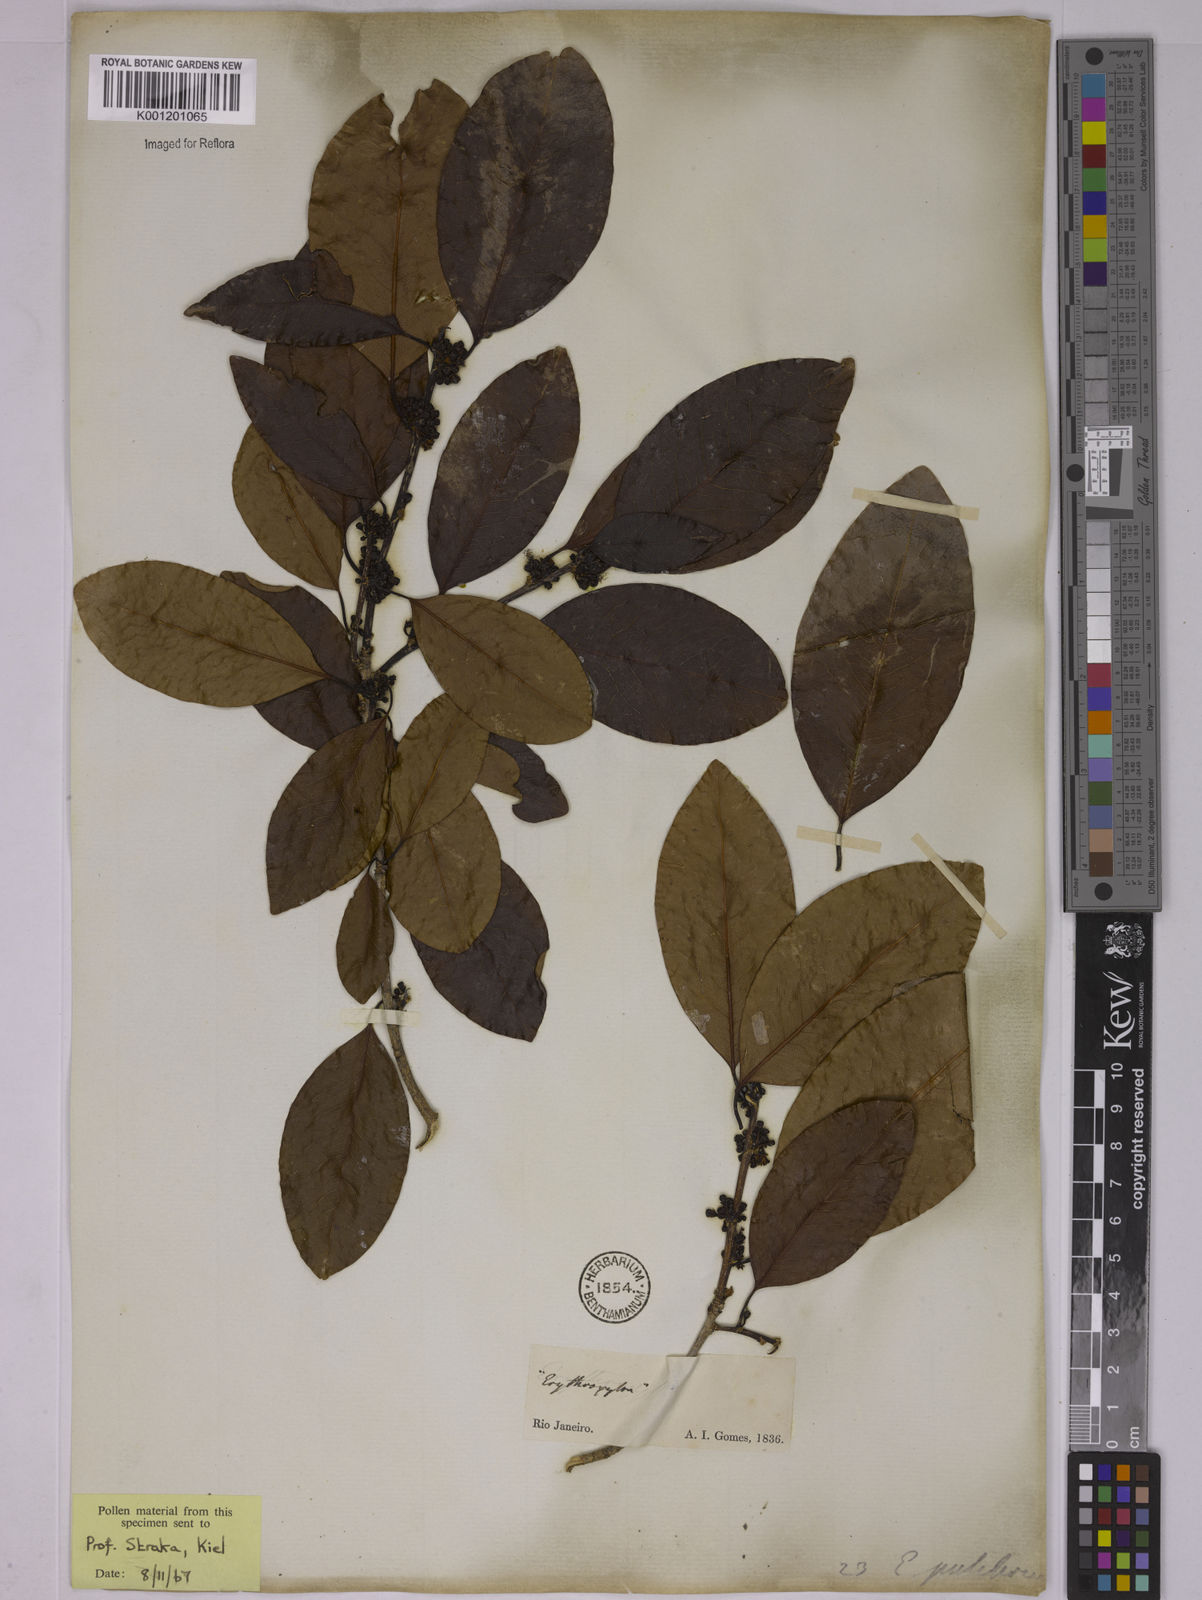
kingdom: Plantae
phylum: Tracheophyta
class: Magnoliopsida
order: Malpighiales
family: Erythroxylaceae
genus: Erythroxylum
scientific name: Erythroxylum pulchrum
